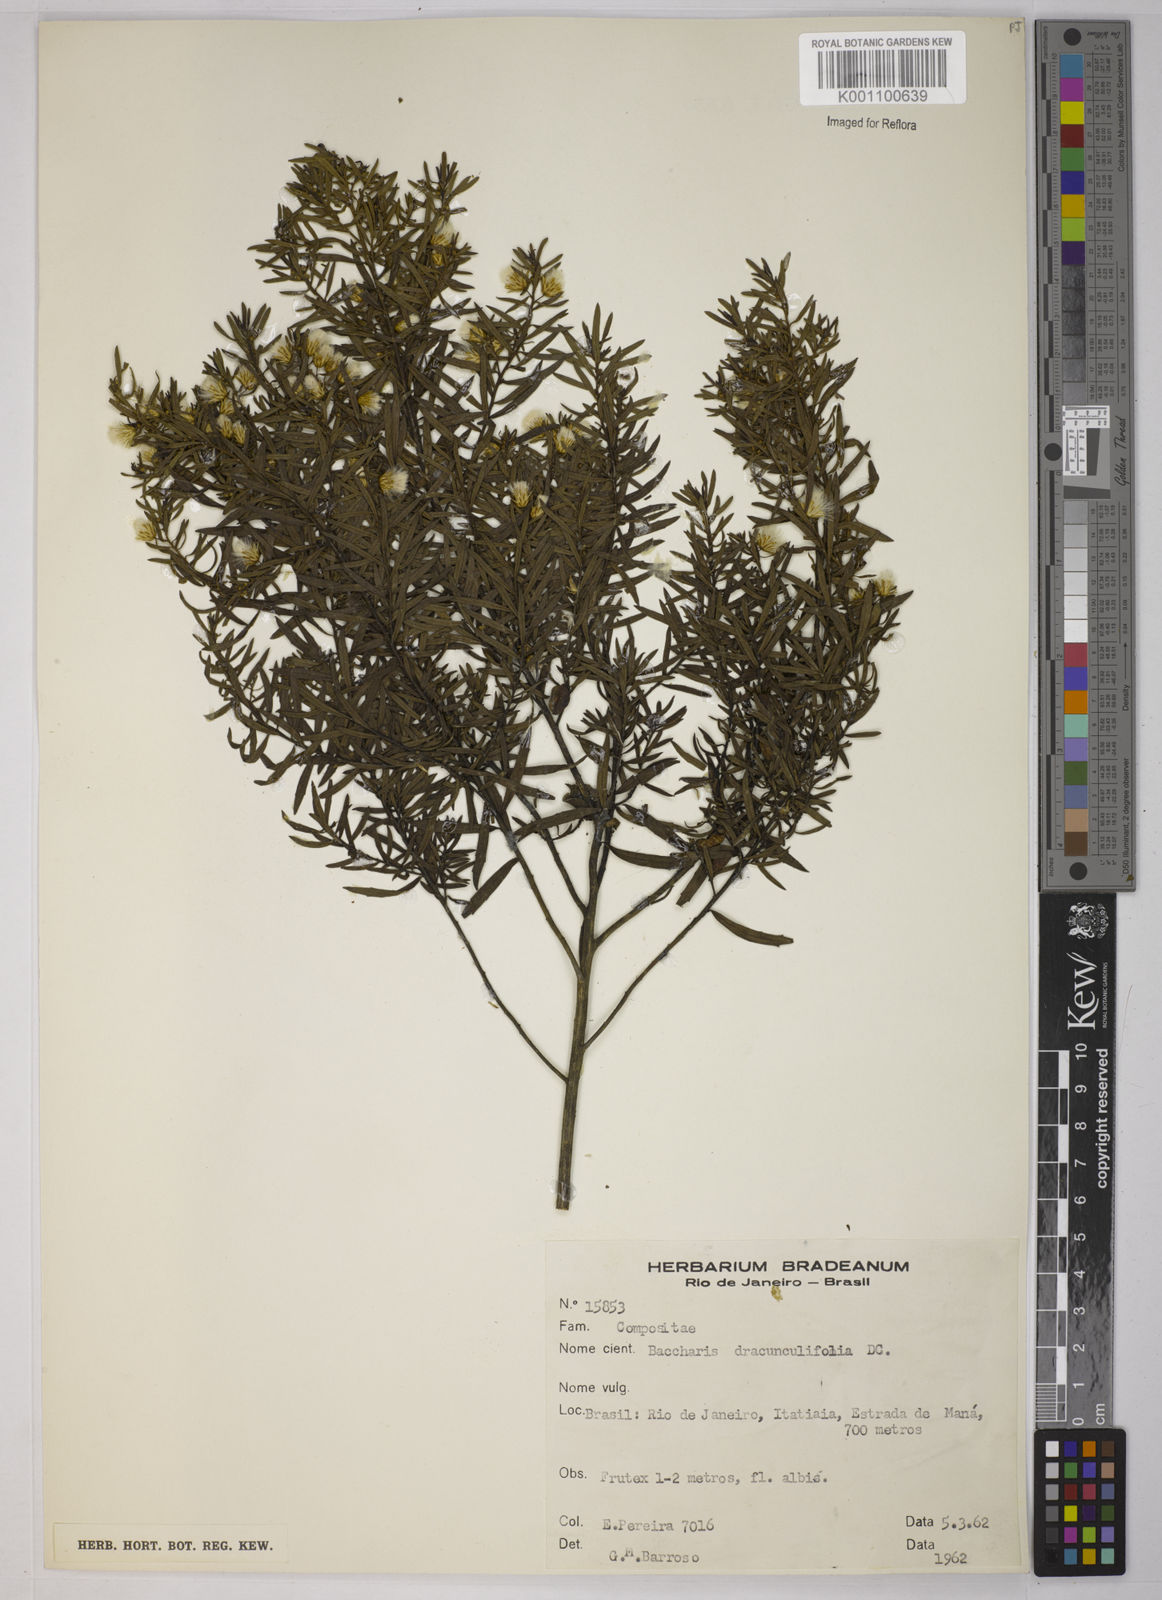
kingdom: Plantae
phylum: Tracheophyta
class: Magnoliopsida
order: Asterales
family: Asteraceae
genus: Baccharis
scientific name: Baccharis dracunculifolia
